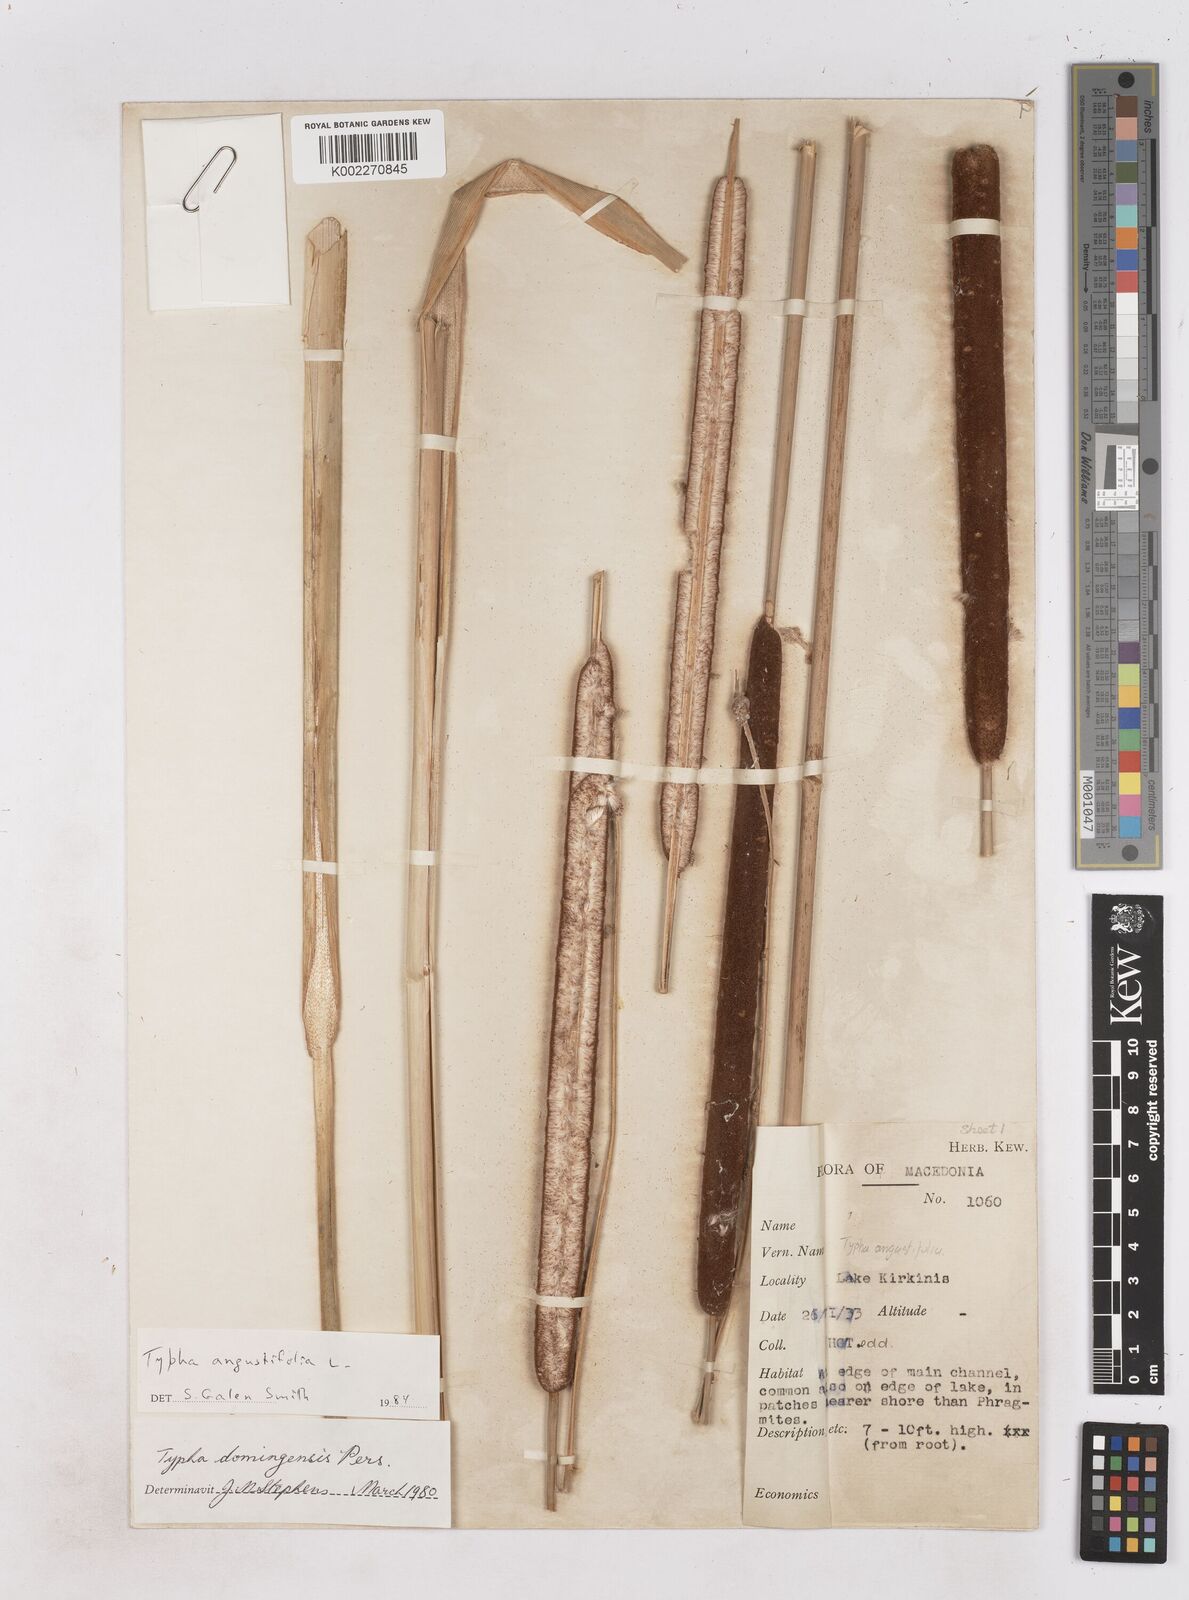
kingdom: Plantae
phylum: Tracheophyta
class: Liliopsida
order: Poales
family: Typhaceae
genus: Typha
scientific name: Typha angustifolia
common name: Lesser bulrush
